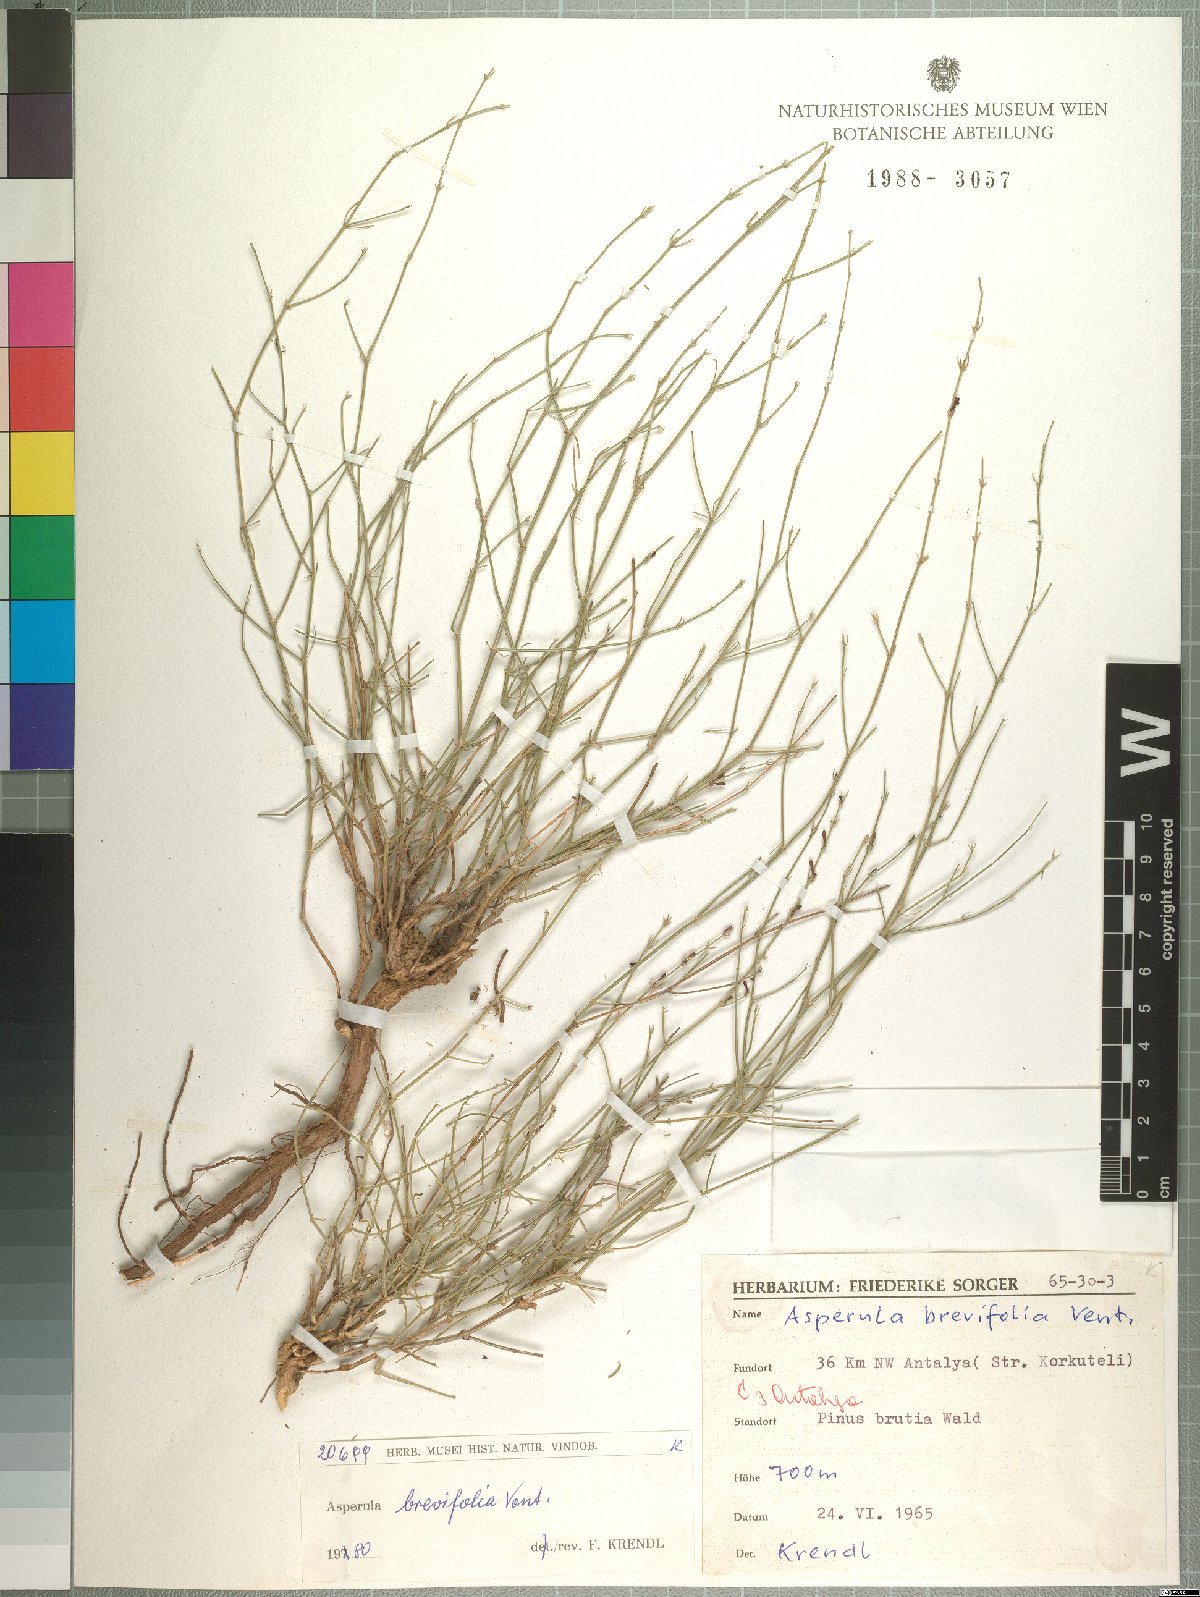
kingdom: Plantae
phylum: Tracheophyta
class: Magnoliopsida
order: Gentianales
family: Rubiaceae
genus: Thliphthisa
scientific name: Thliphthisa brevifolia
